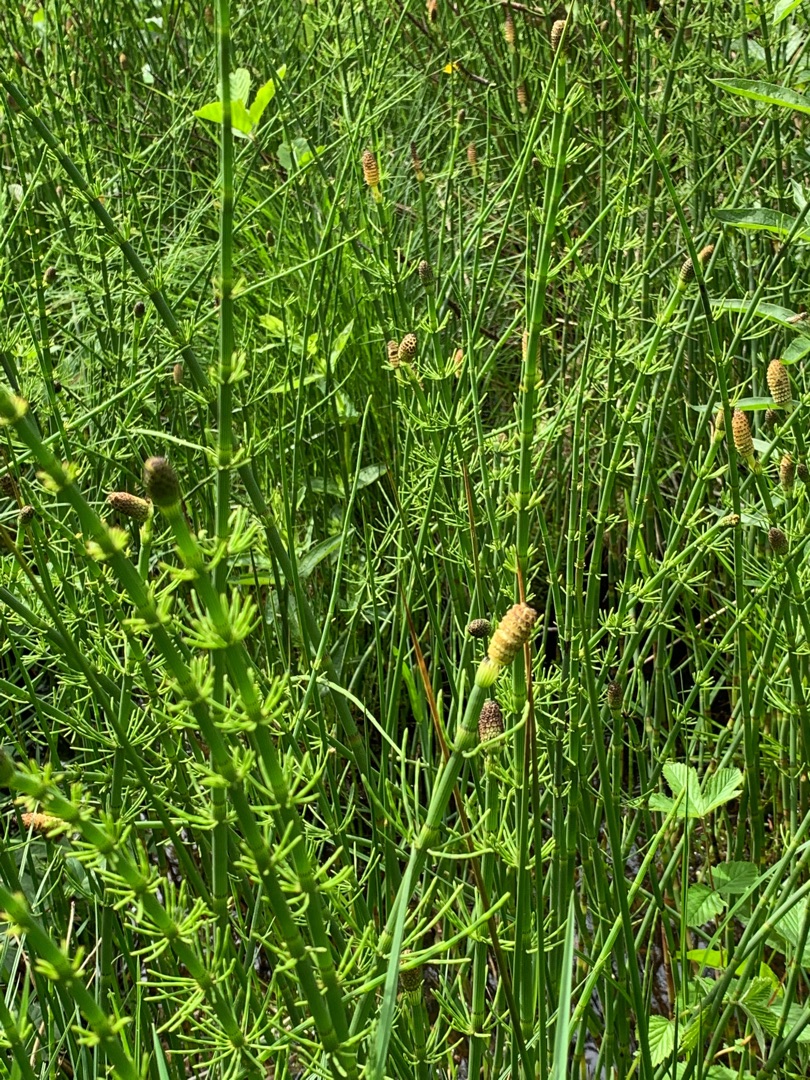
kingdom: Plantae
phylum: Tracheophyta
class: Polypodiopsida
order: Equisetales
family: Equisetaceae
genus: Equisetum
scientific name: Equisetum fluviatile
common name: Dynd-padderok
